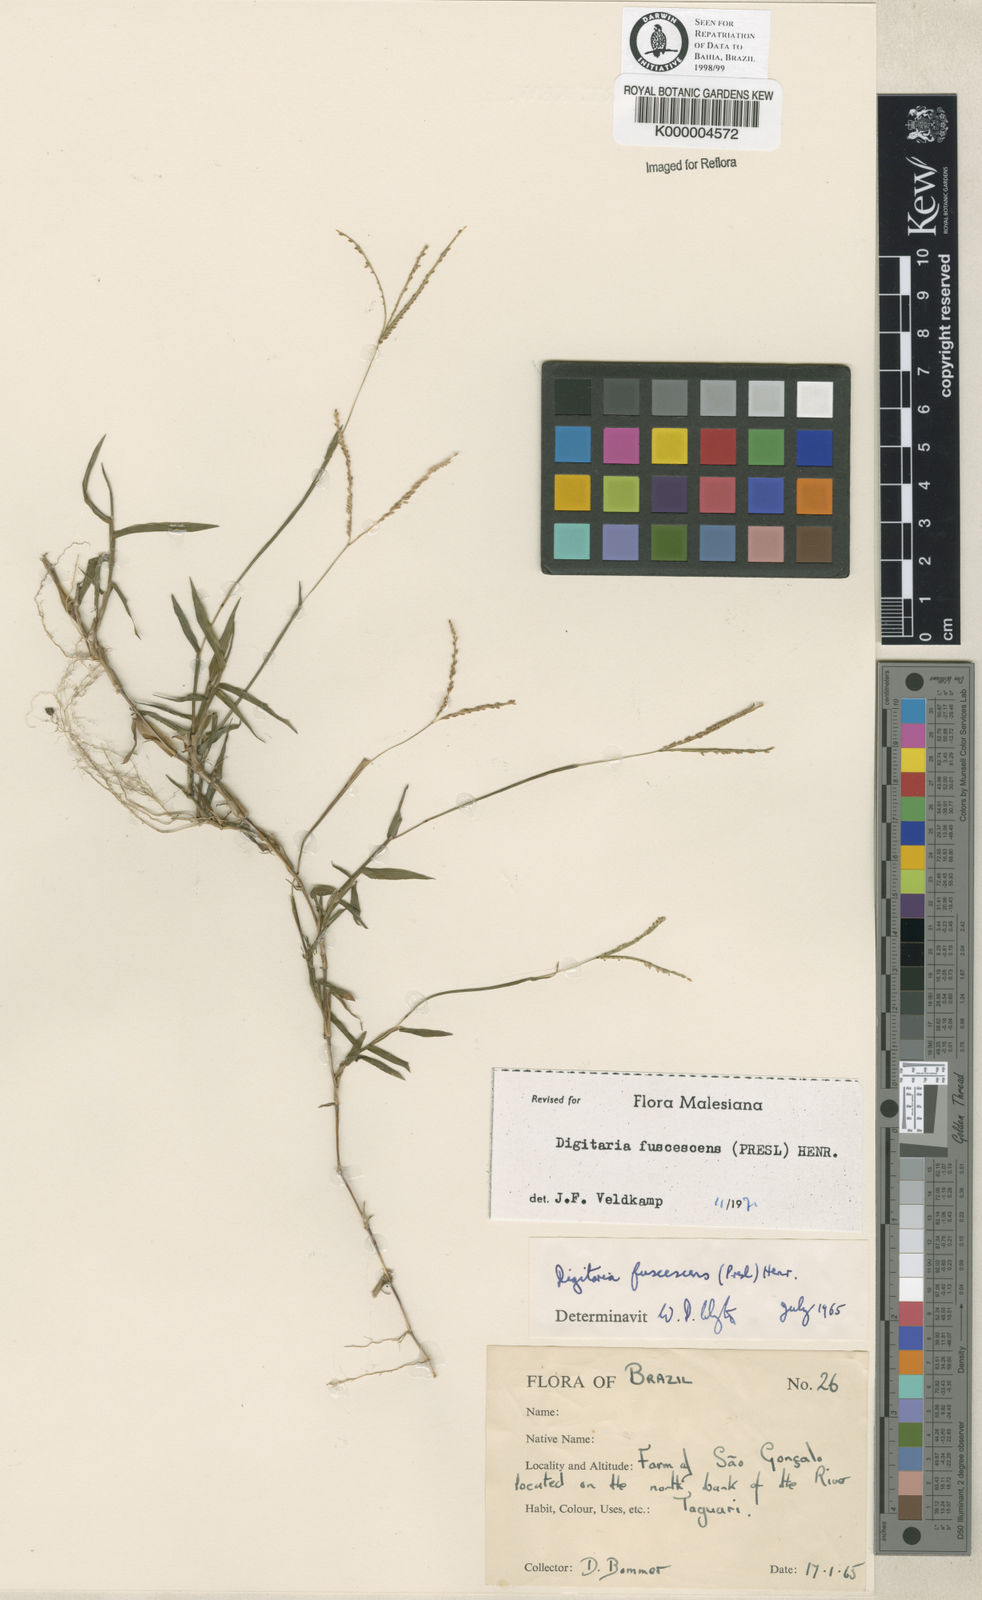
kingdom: Plantae
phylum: Tracheophyta
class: Liliopsida
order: Poales
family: Poaceae
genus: Digitaria
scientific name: Digitaria fuscescens
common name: Yellow crabgrass
